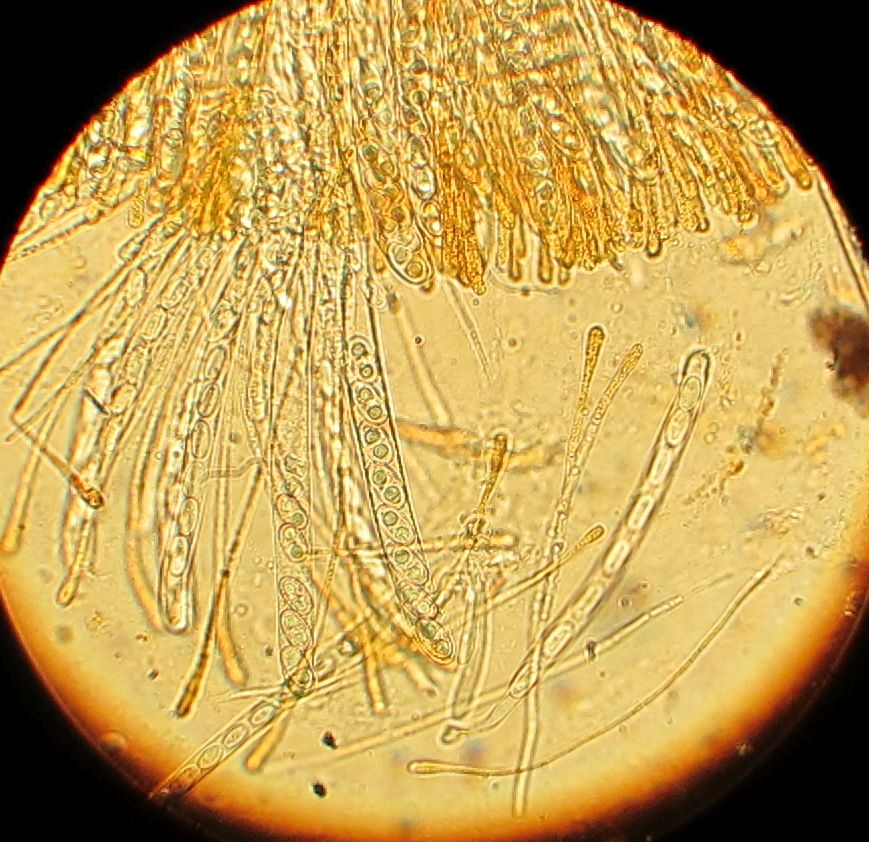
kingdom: Fungi
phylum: Ascomycota
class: Pezizomycetes
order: Pezizales
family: Pyronemataceae
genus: Anthracobia
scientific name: Anthracobia melaloma
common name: flamme-ildbæger
